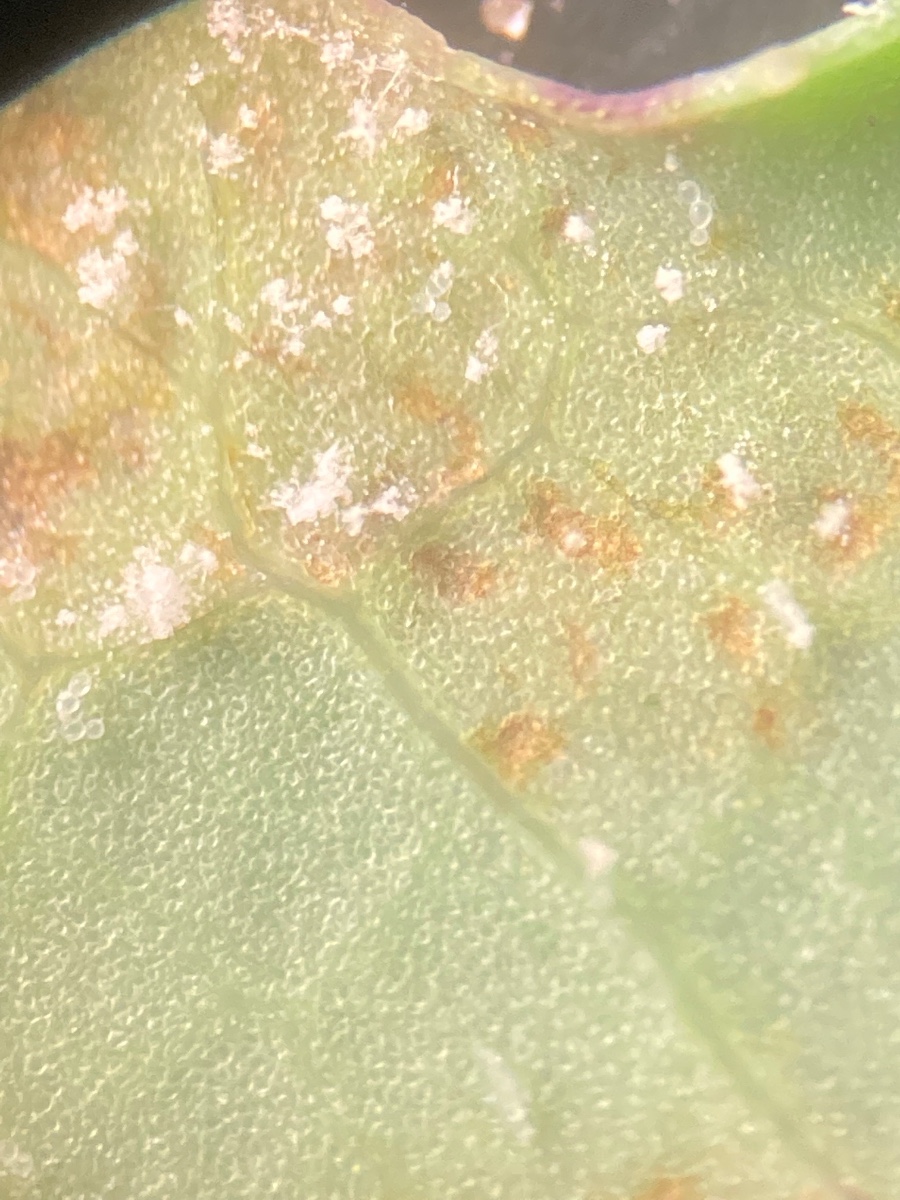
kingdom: Chromista
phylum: Oomycota
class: Peronosporea
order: Peronosporales
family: Peronosporaceae
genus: Bremia
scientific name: Bremia lactucae
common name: Lettuce downy mildew
